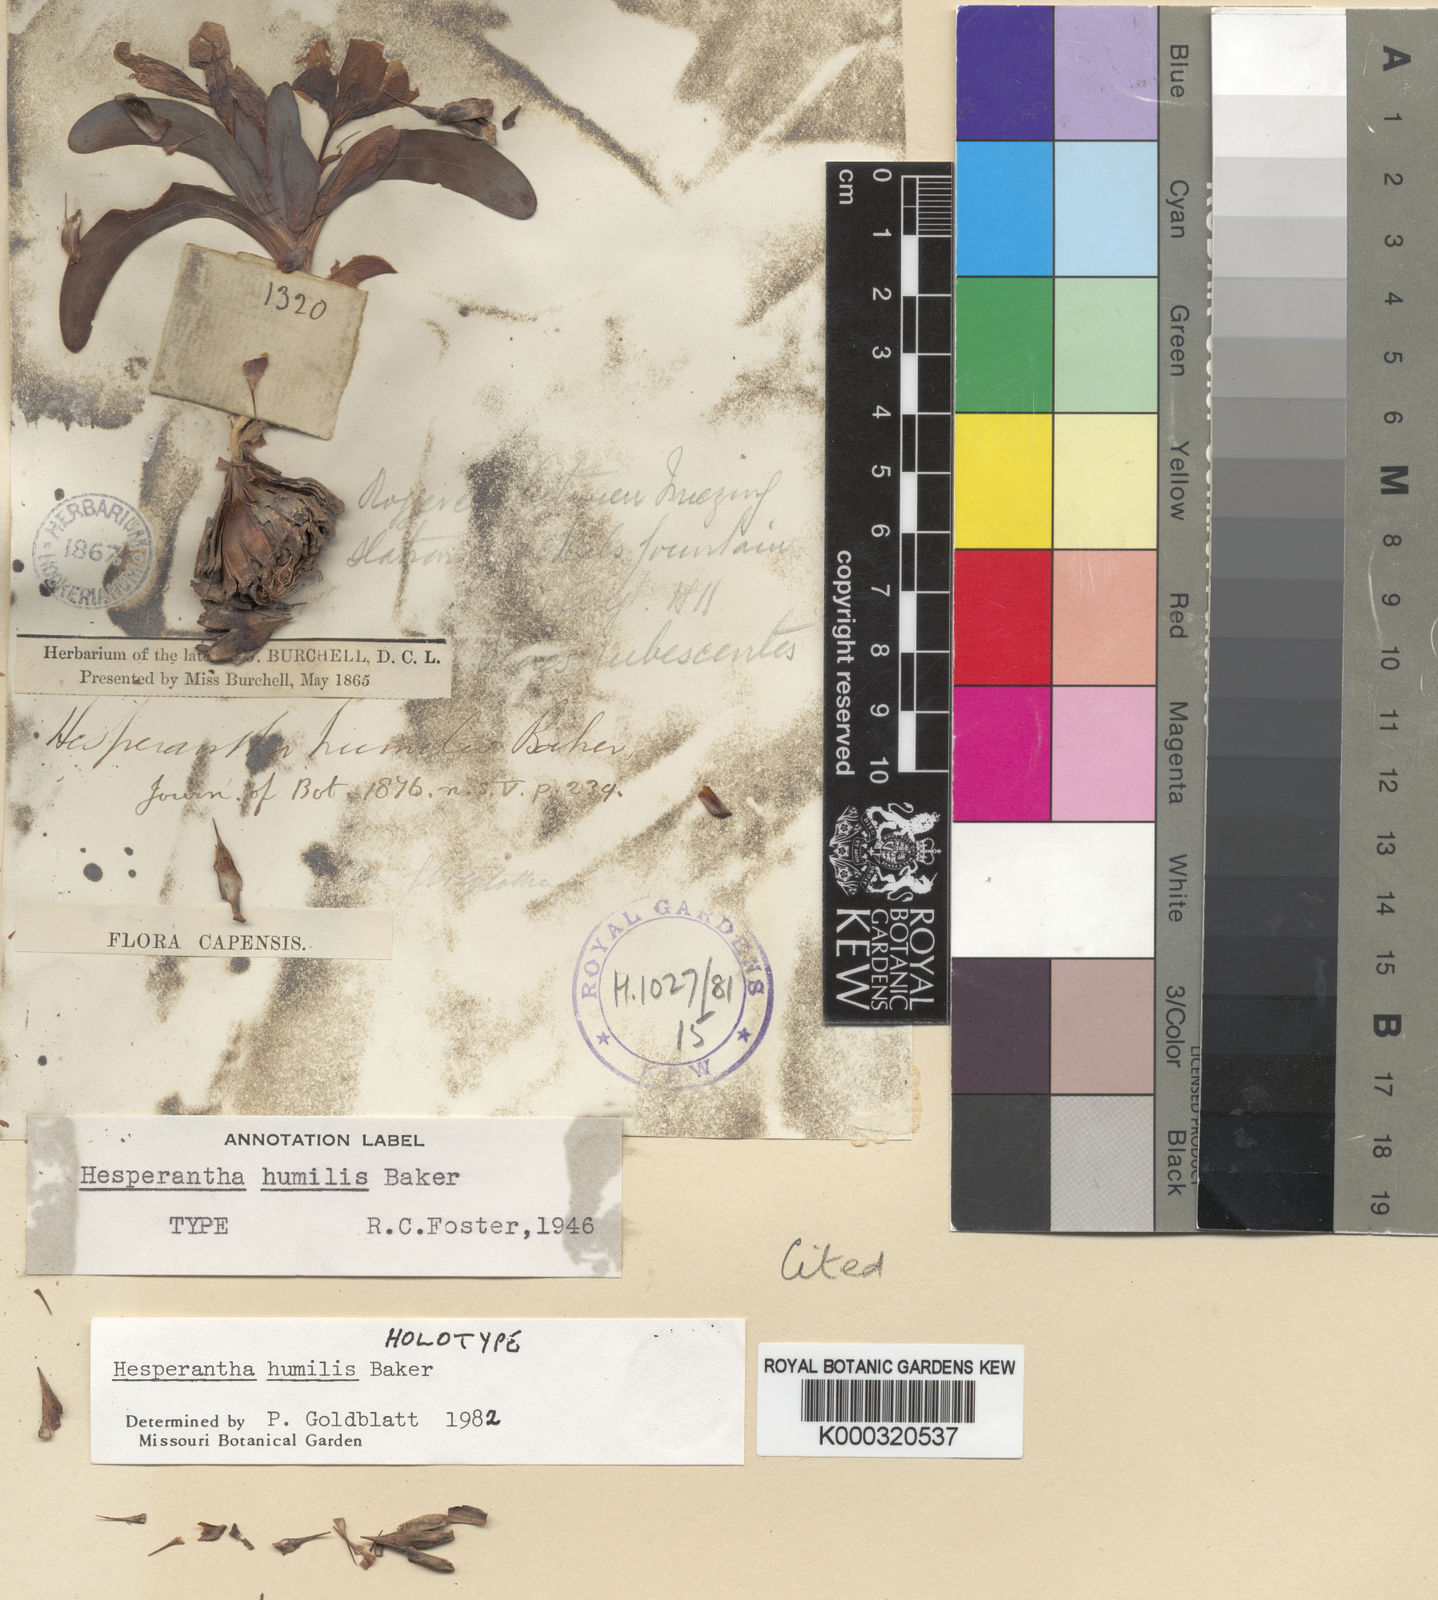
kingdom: Plantae
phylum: Tracheophyta
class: Liliopsida
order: Asparagales
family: Iridaceae
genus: Hesperantha
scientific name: Hesperantha humilis
